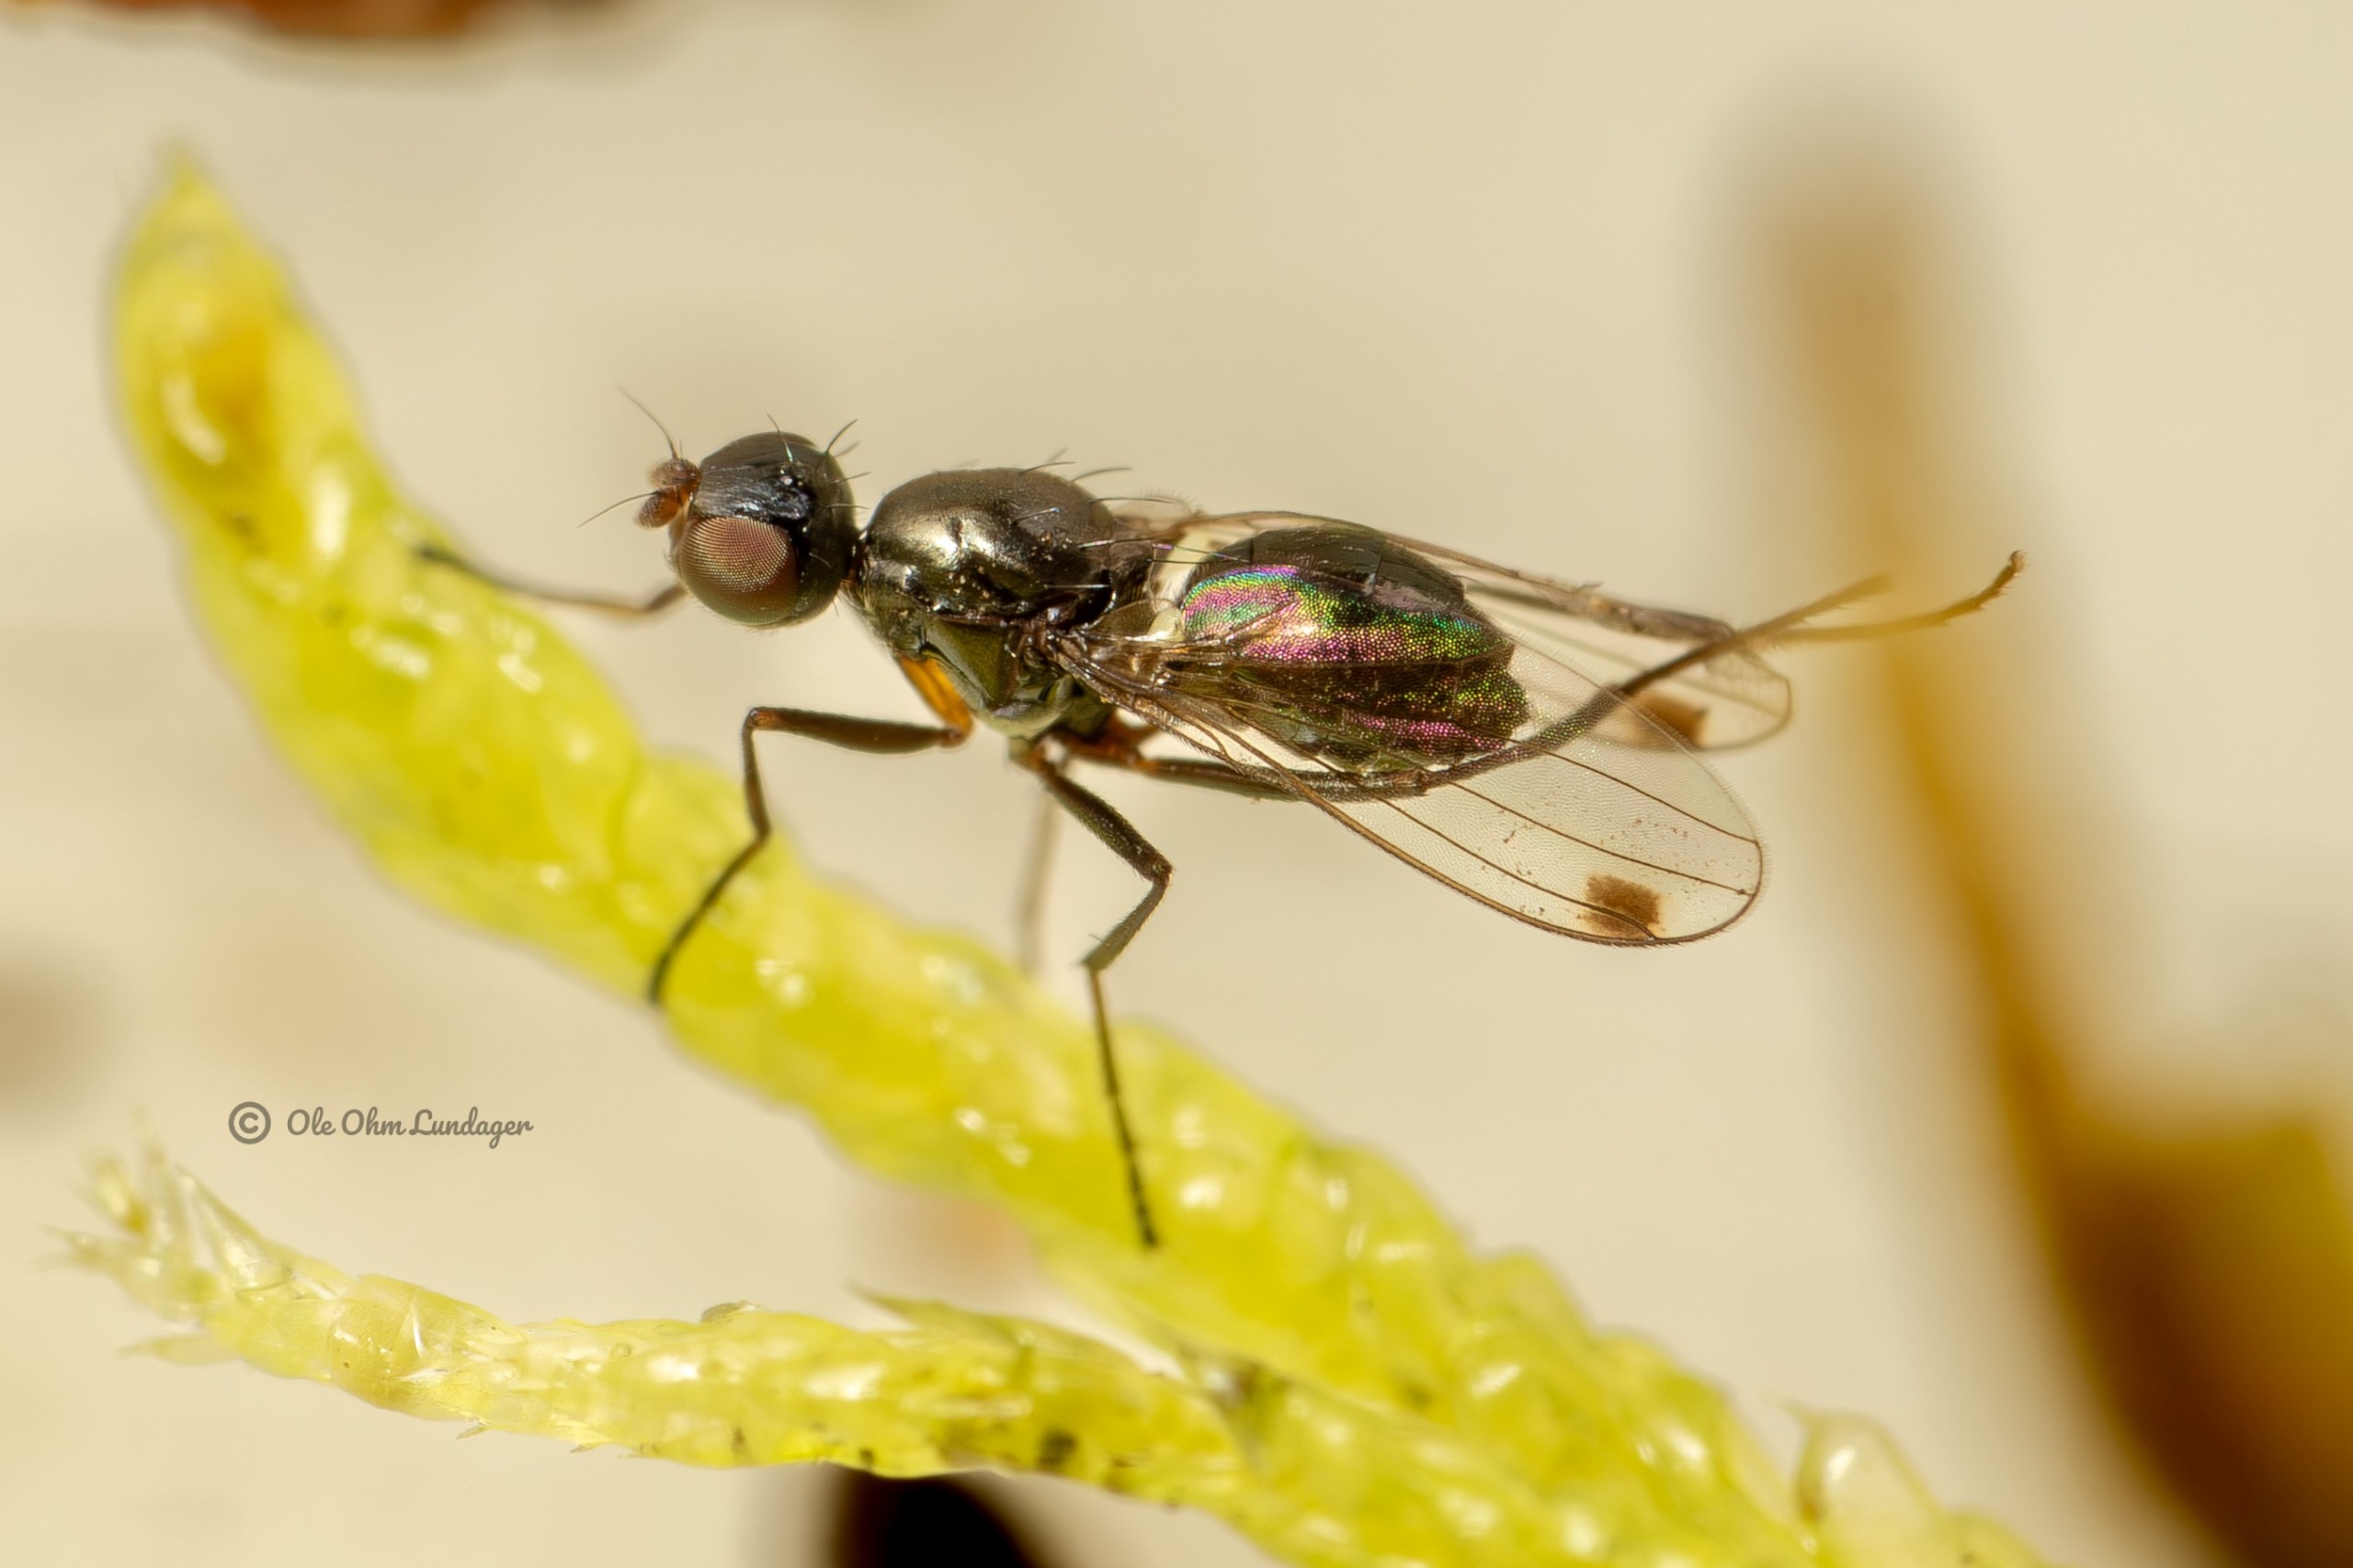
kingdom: Animalia
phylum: Arthropoda
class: Insecta
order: Diptera
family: Sepsidae
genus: Sepsis
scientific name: Sepsis
